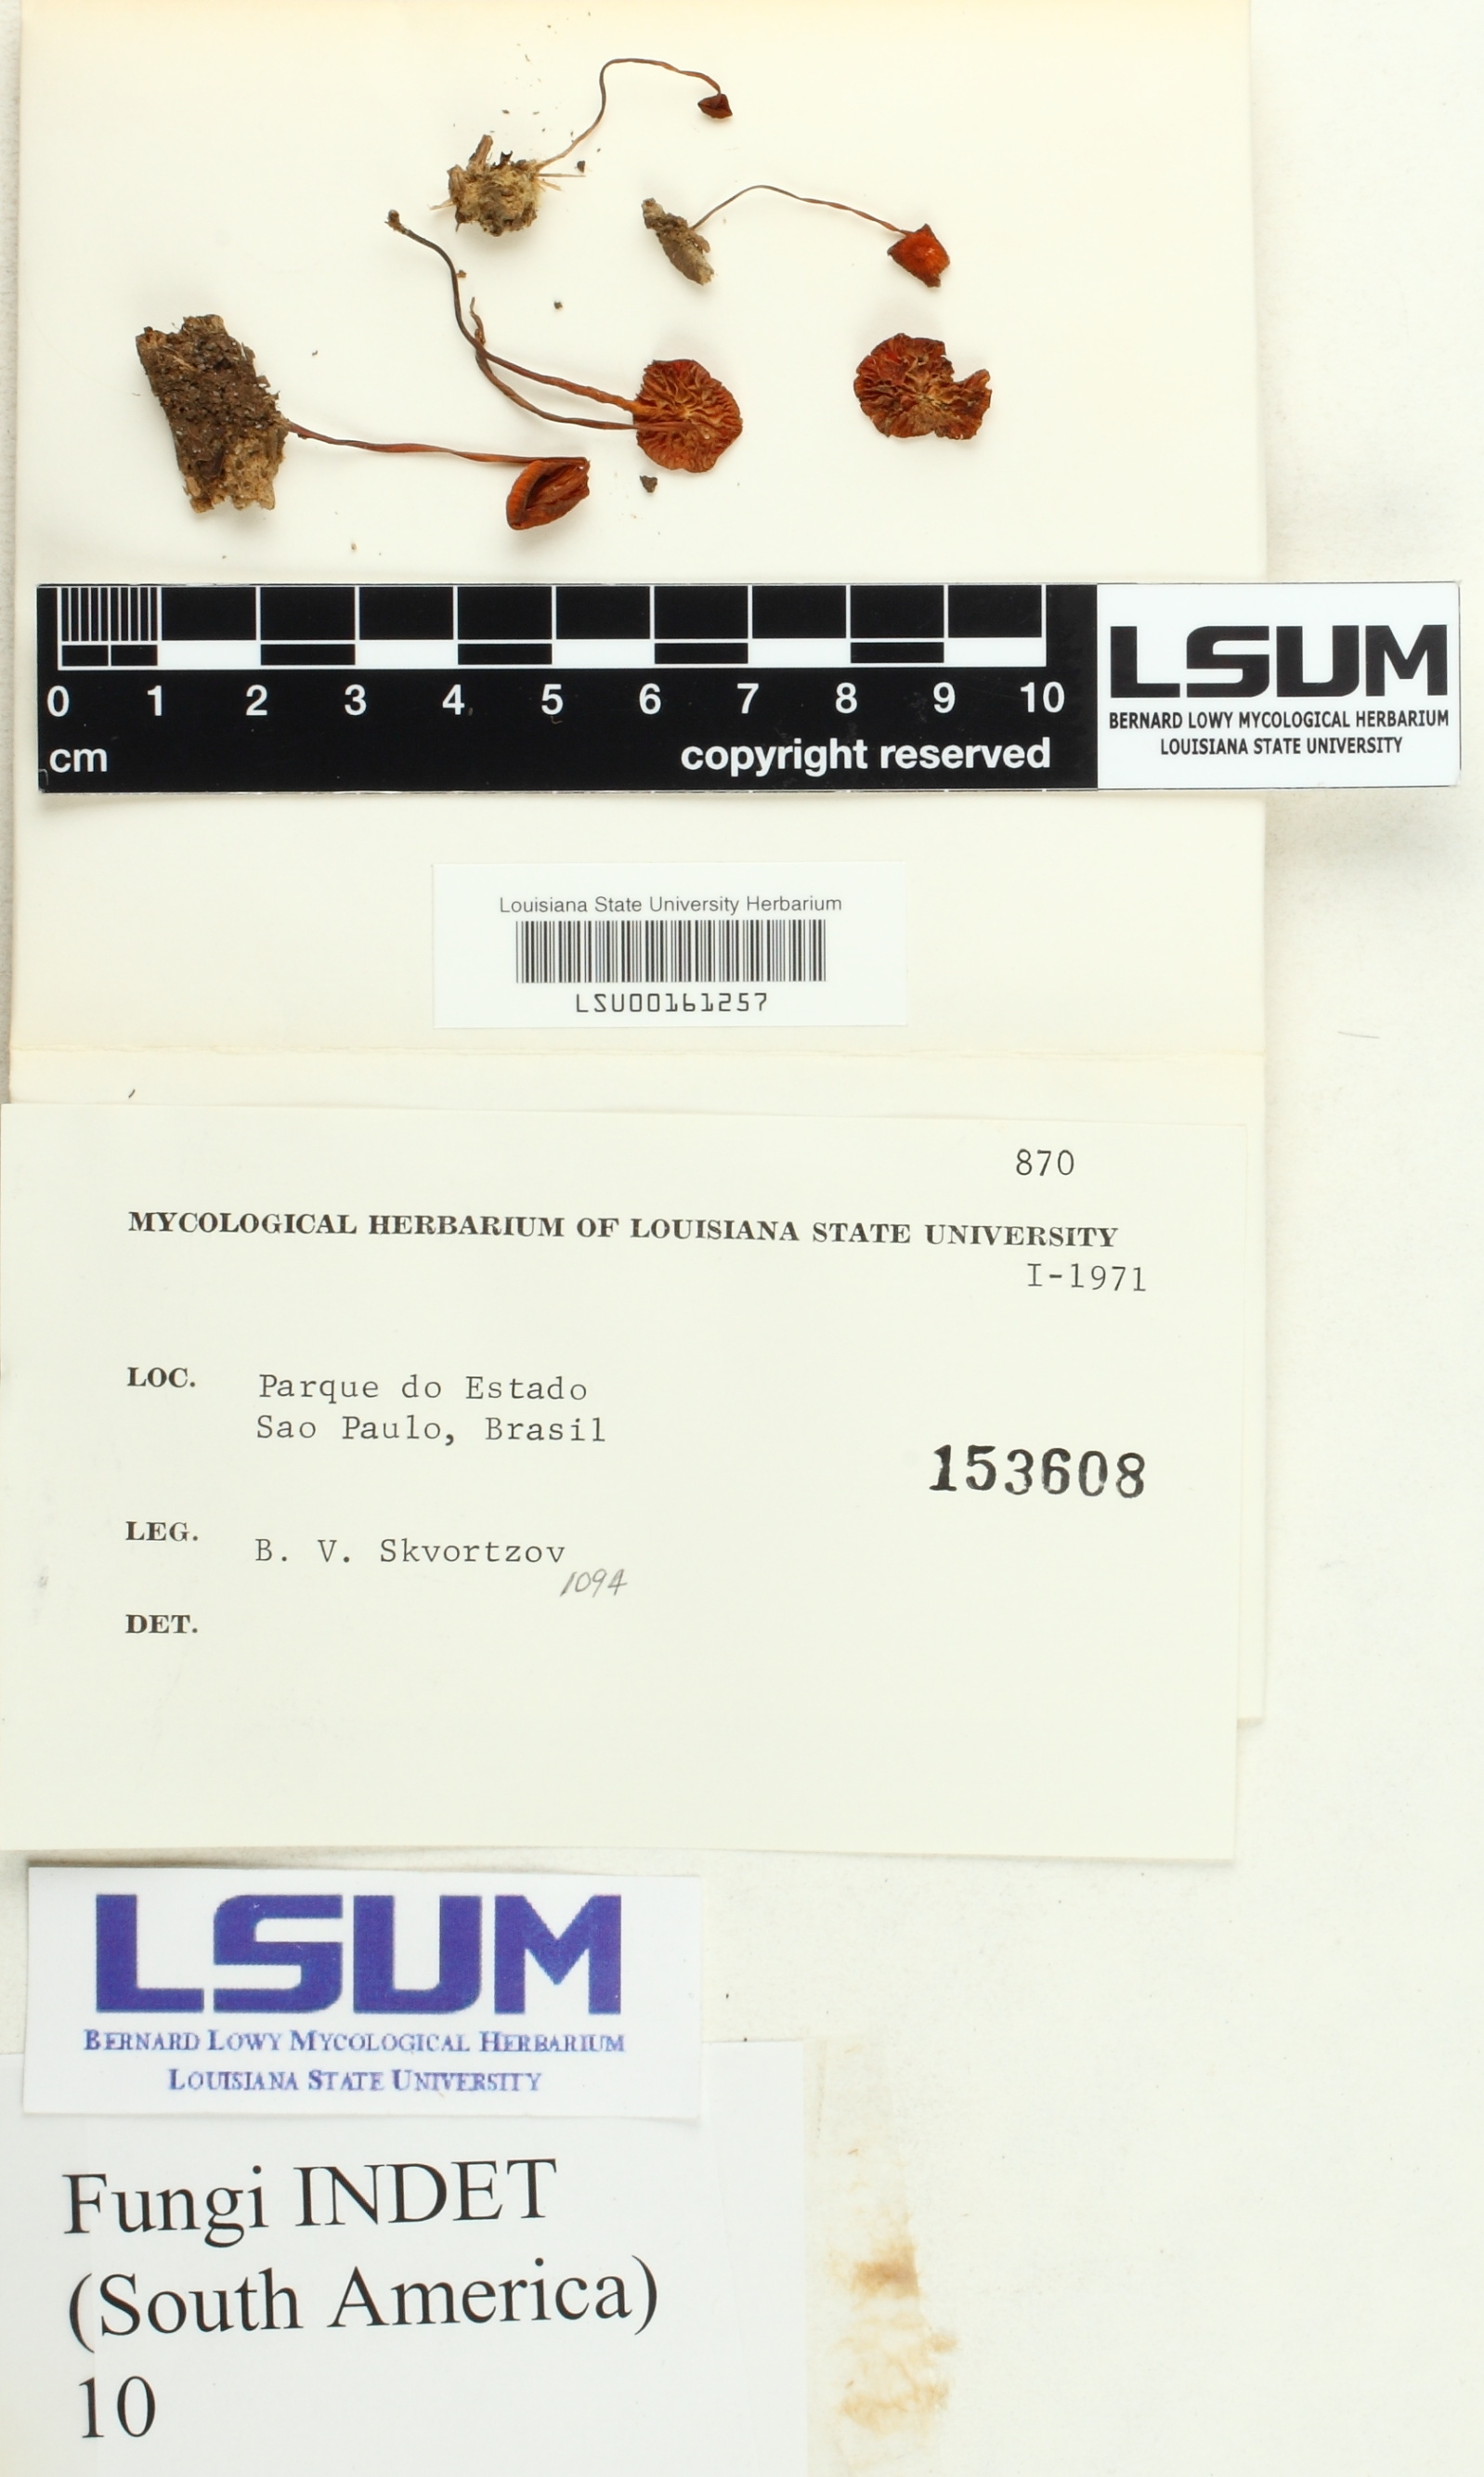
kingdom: Fungi
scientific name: Fungi
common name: Fungi
